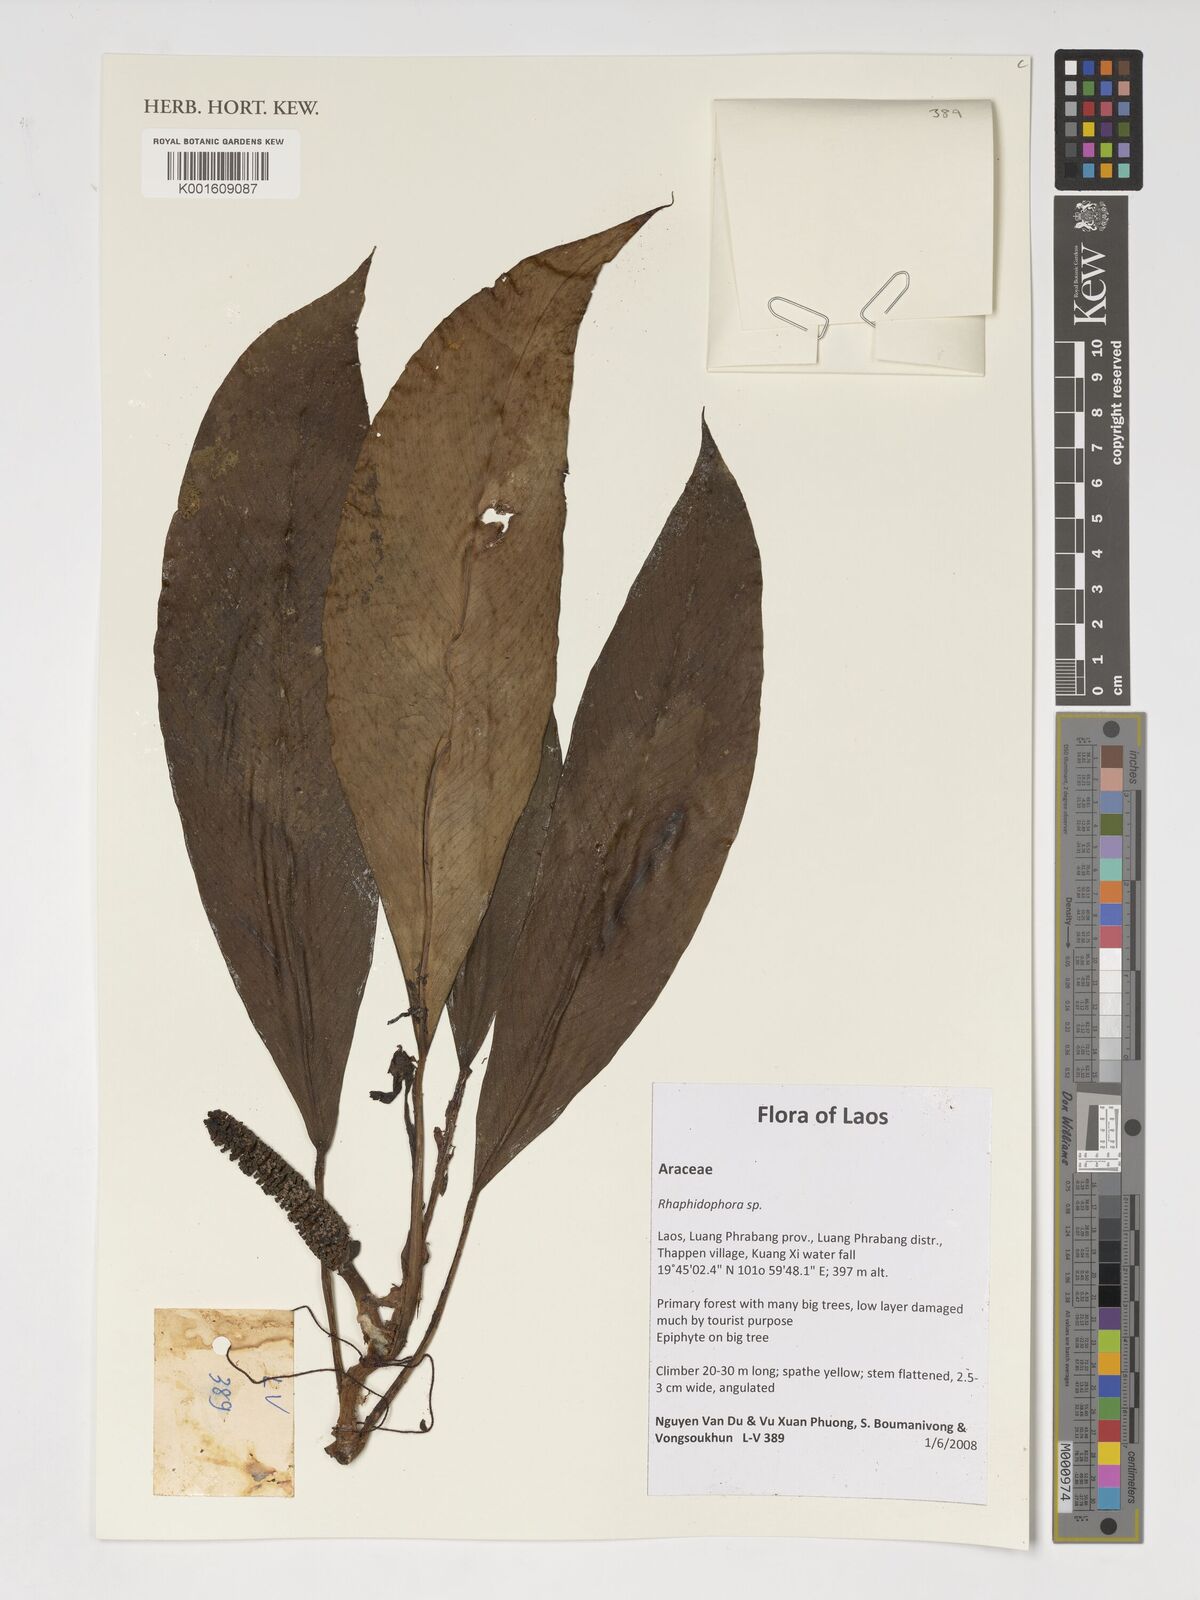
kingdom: Plantae
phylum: Tracheophyta
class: Liliopsida
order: Alismatales
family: Araceae
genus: Rhaphidophora
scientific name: Rhaphidophora
